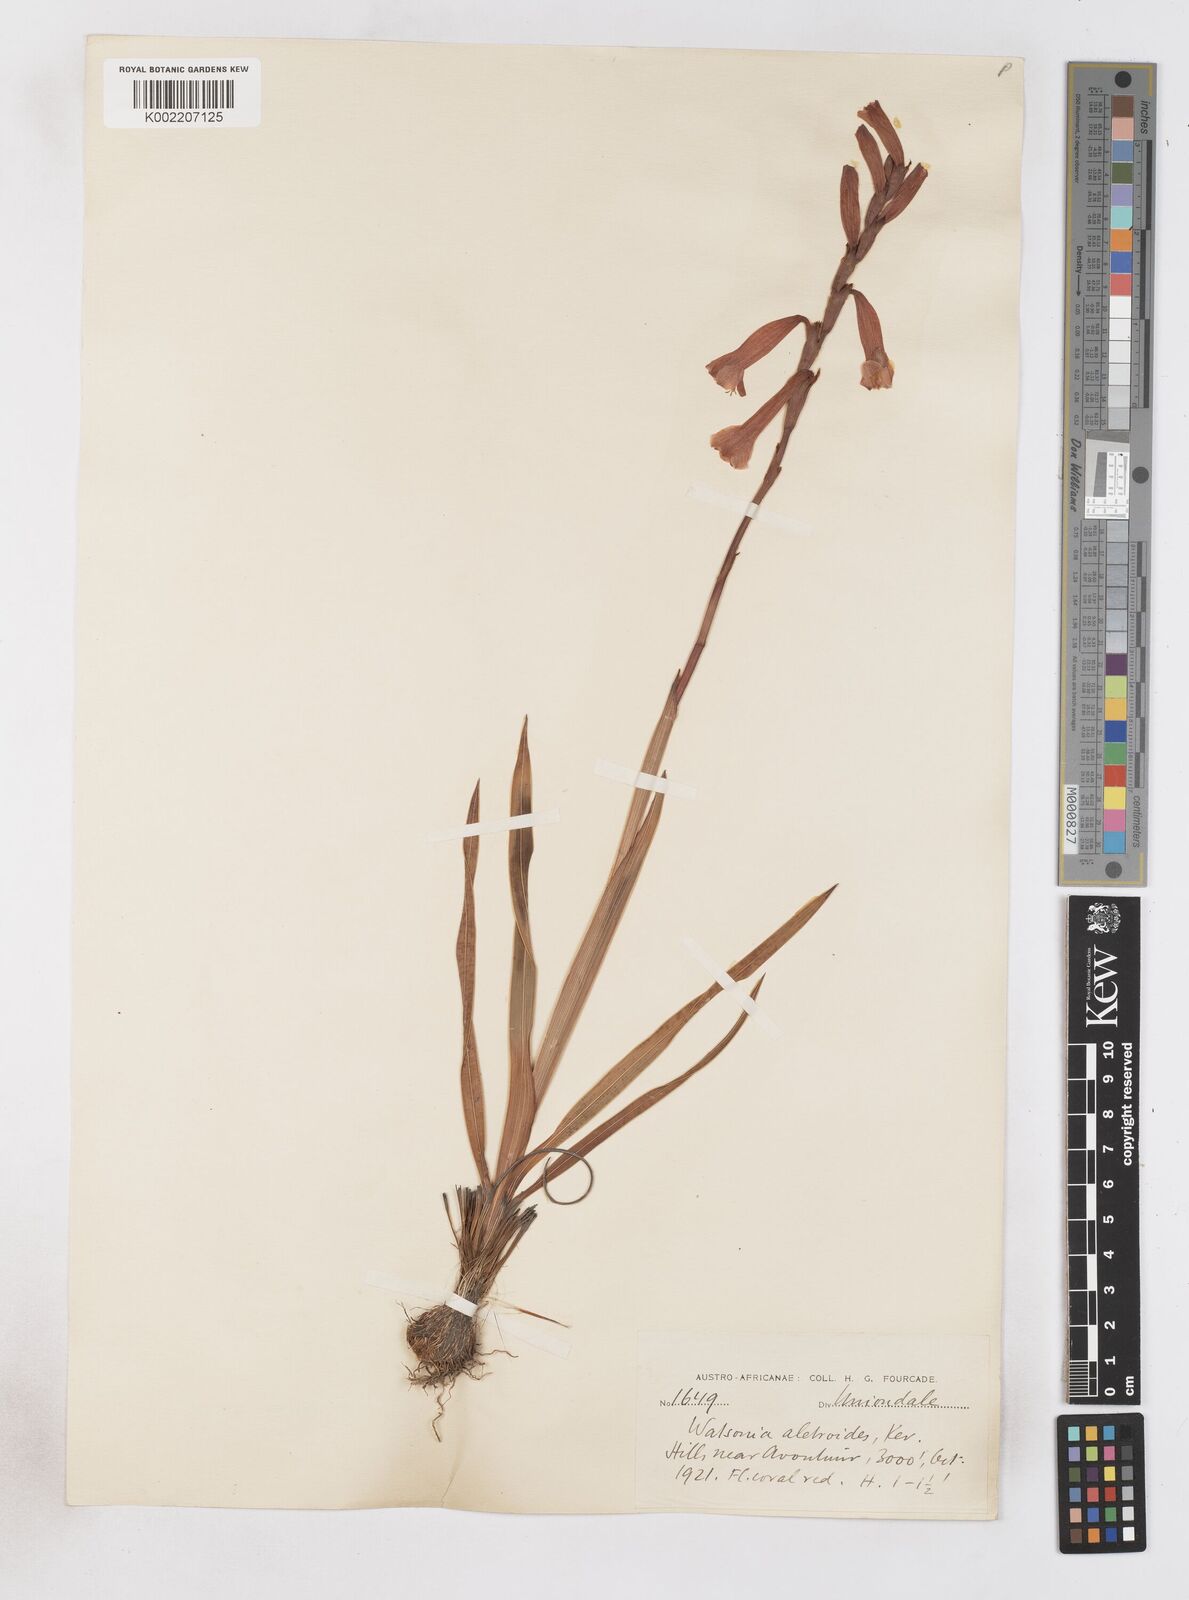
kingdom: Plantae
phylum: Tracheophyta
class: Liliopsida
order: Asparagales
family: Iridaceae
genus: Watsonia
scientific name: Watsonia aletroides
